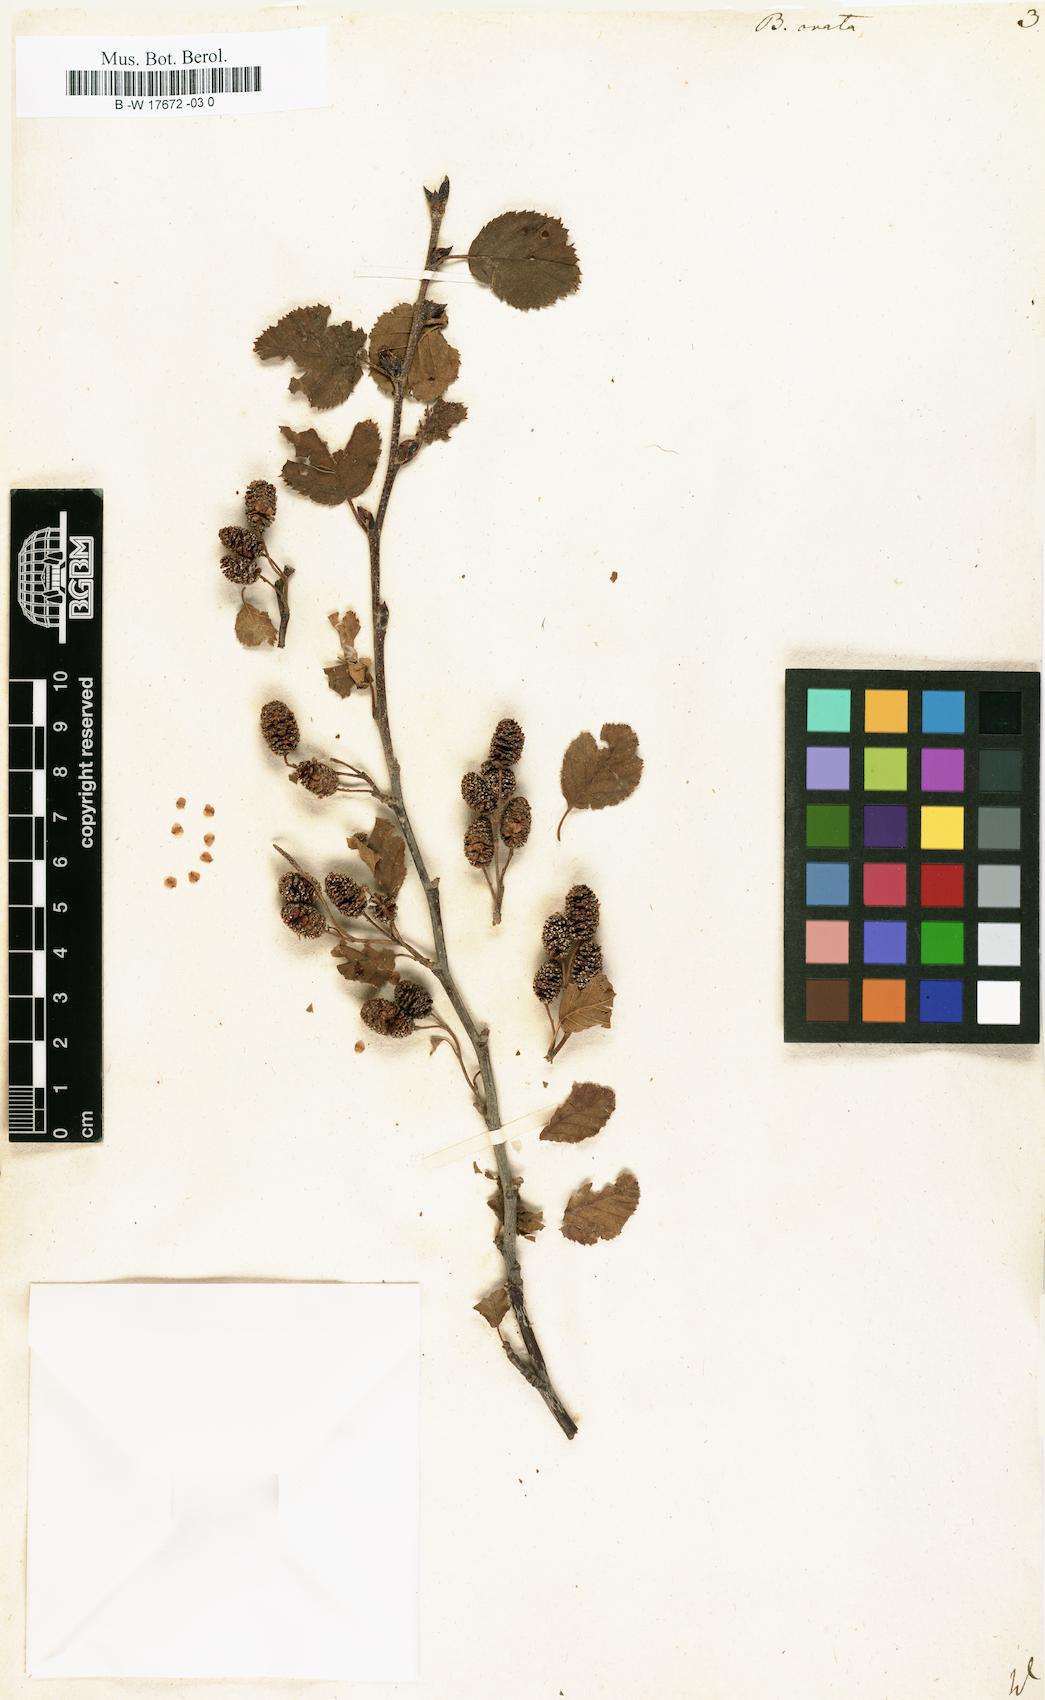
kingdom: Plantae
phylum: Tracheophyta
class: Magnoliopsida
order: Fagales
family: Betulaceae
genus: Betula
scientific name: Betula pubescens
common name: Downy birch
